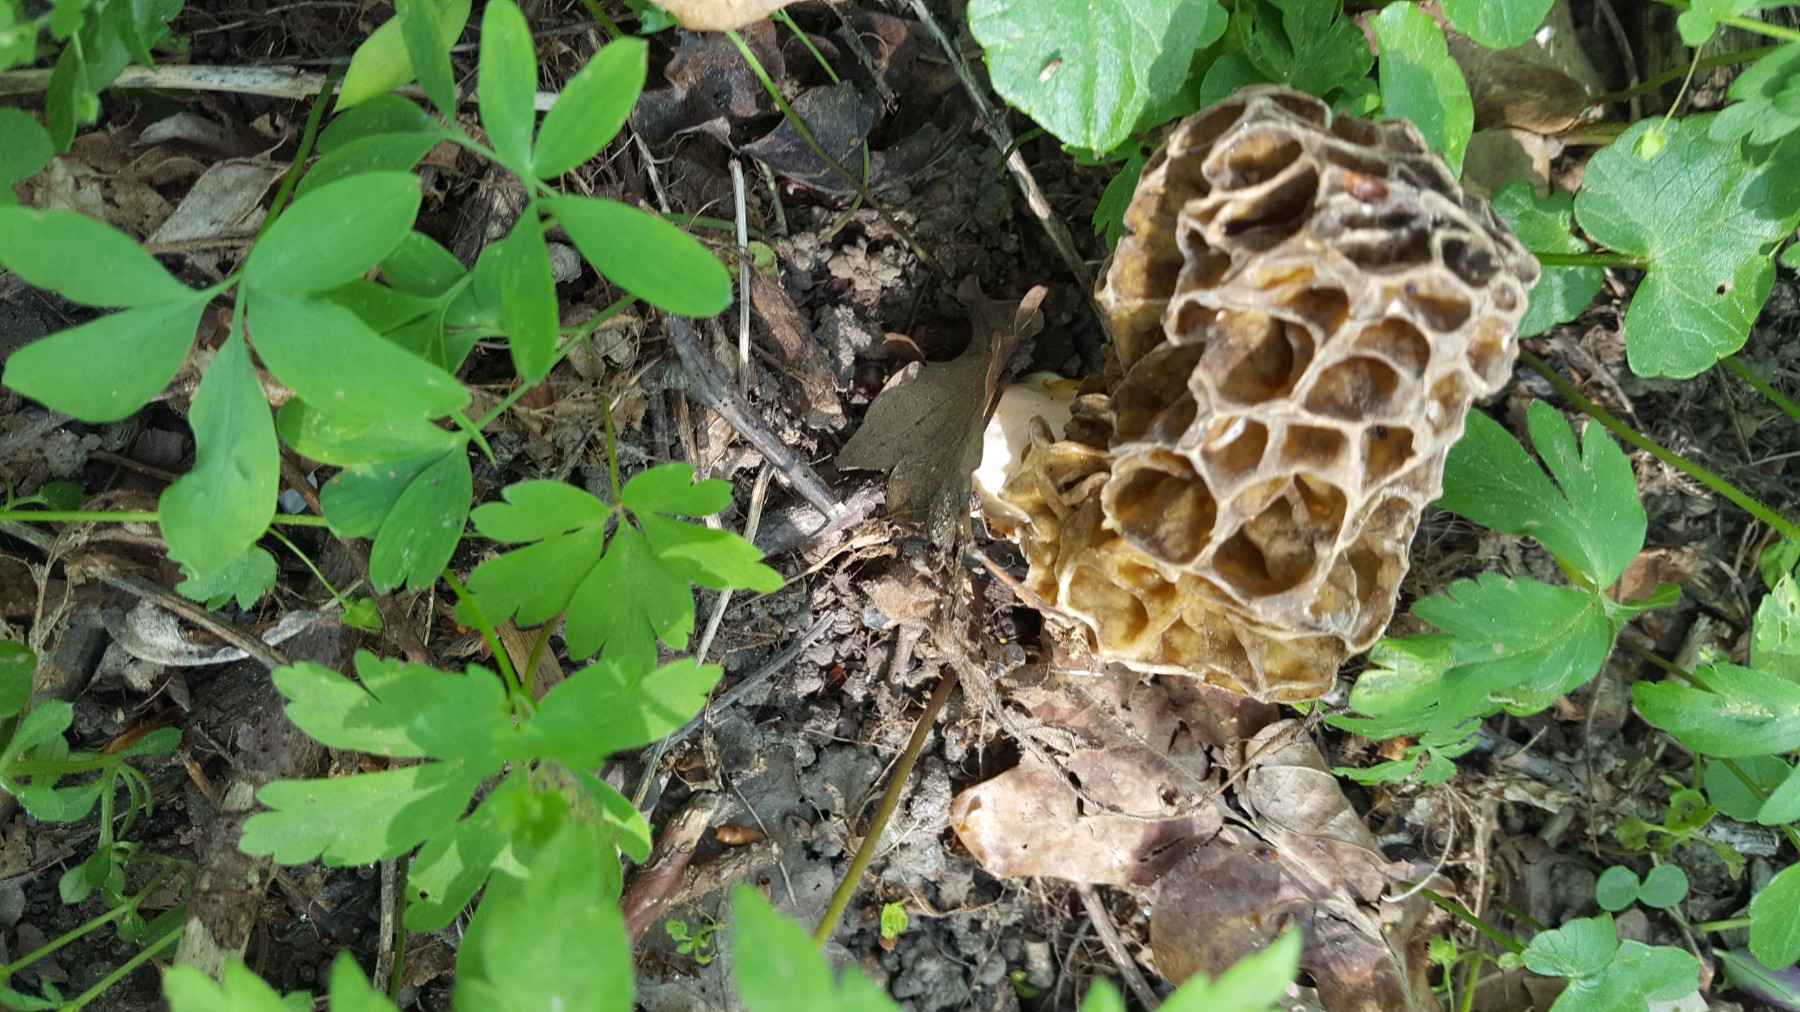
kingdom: Fungi
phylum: Ascomycota
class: Pezizomycetes
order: Pezizales
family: Morchellaceae
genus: Morchella
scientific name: Morchella esculenta
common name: spiselig morkel
